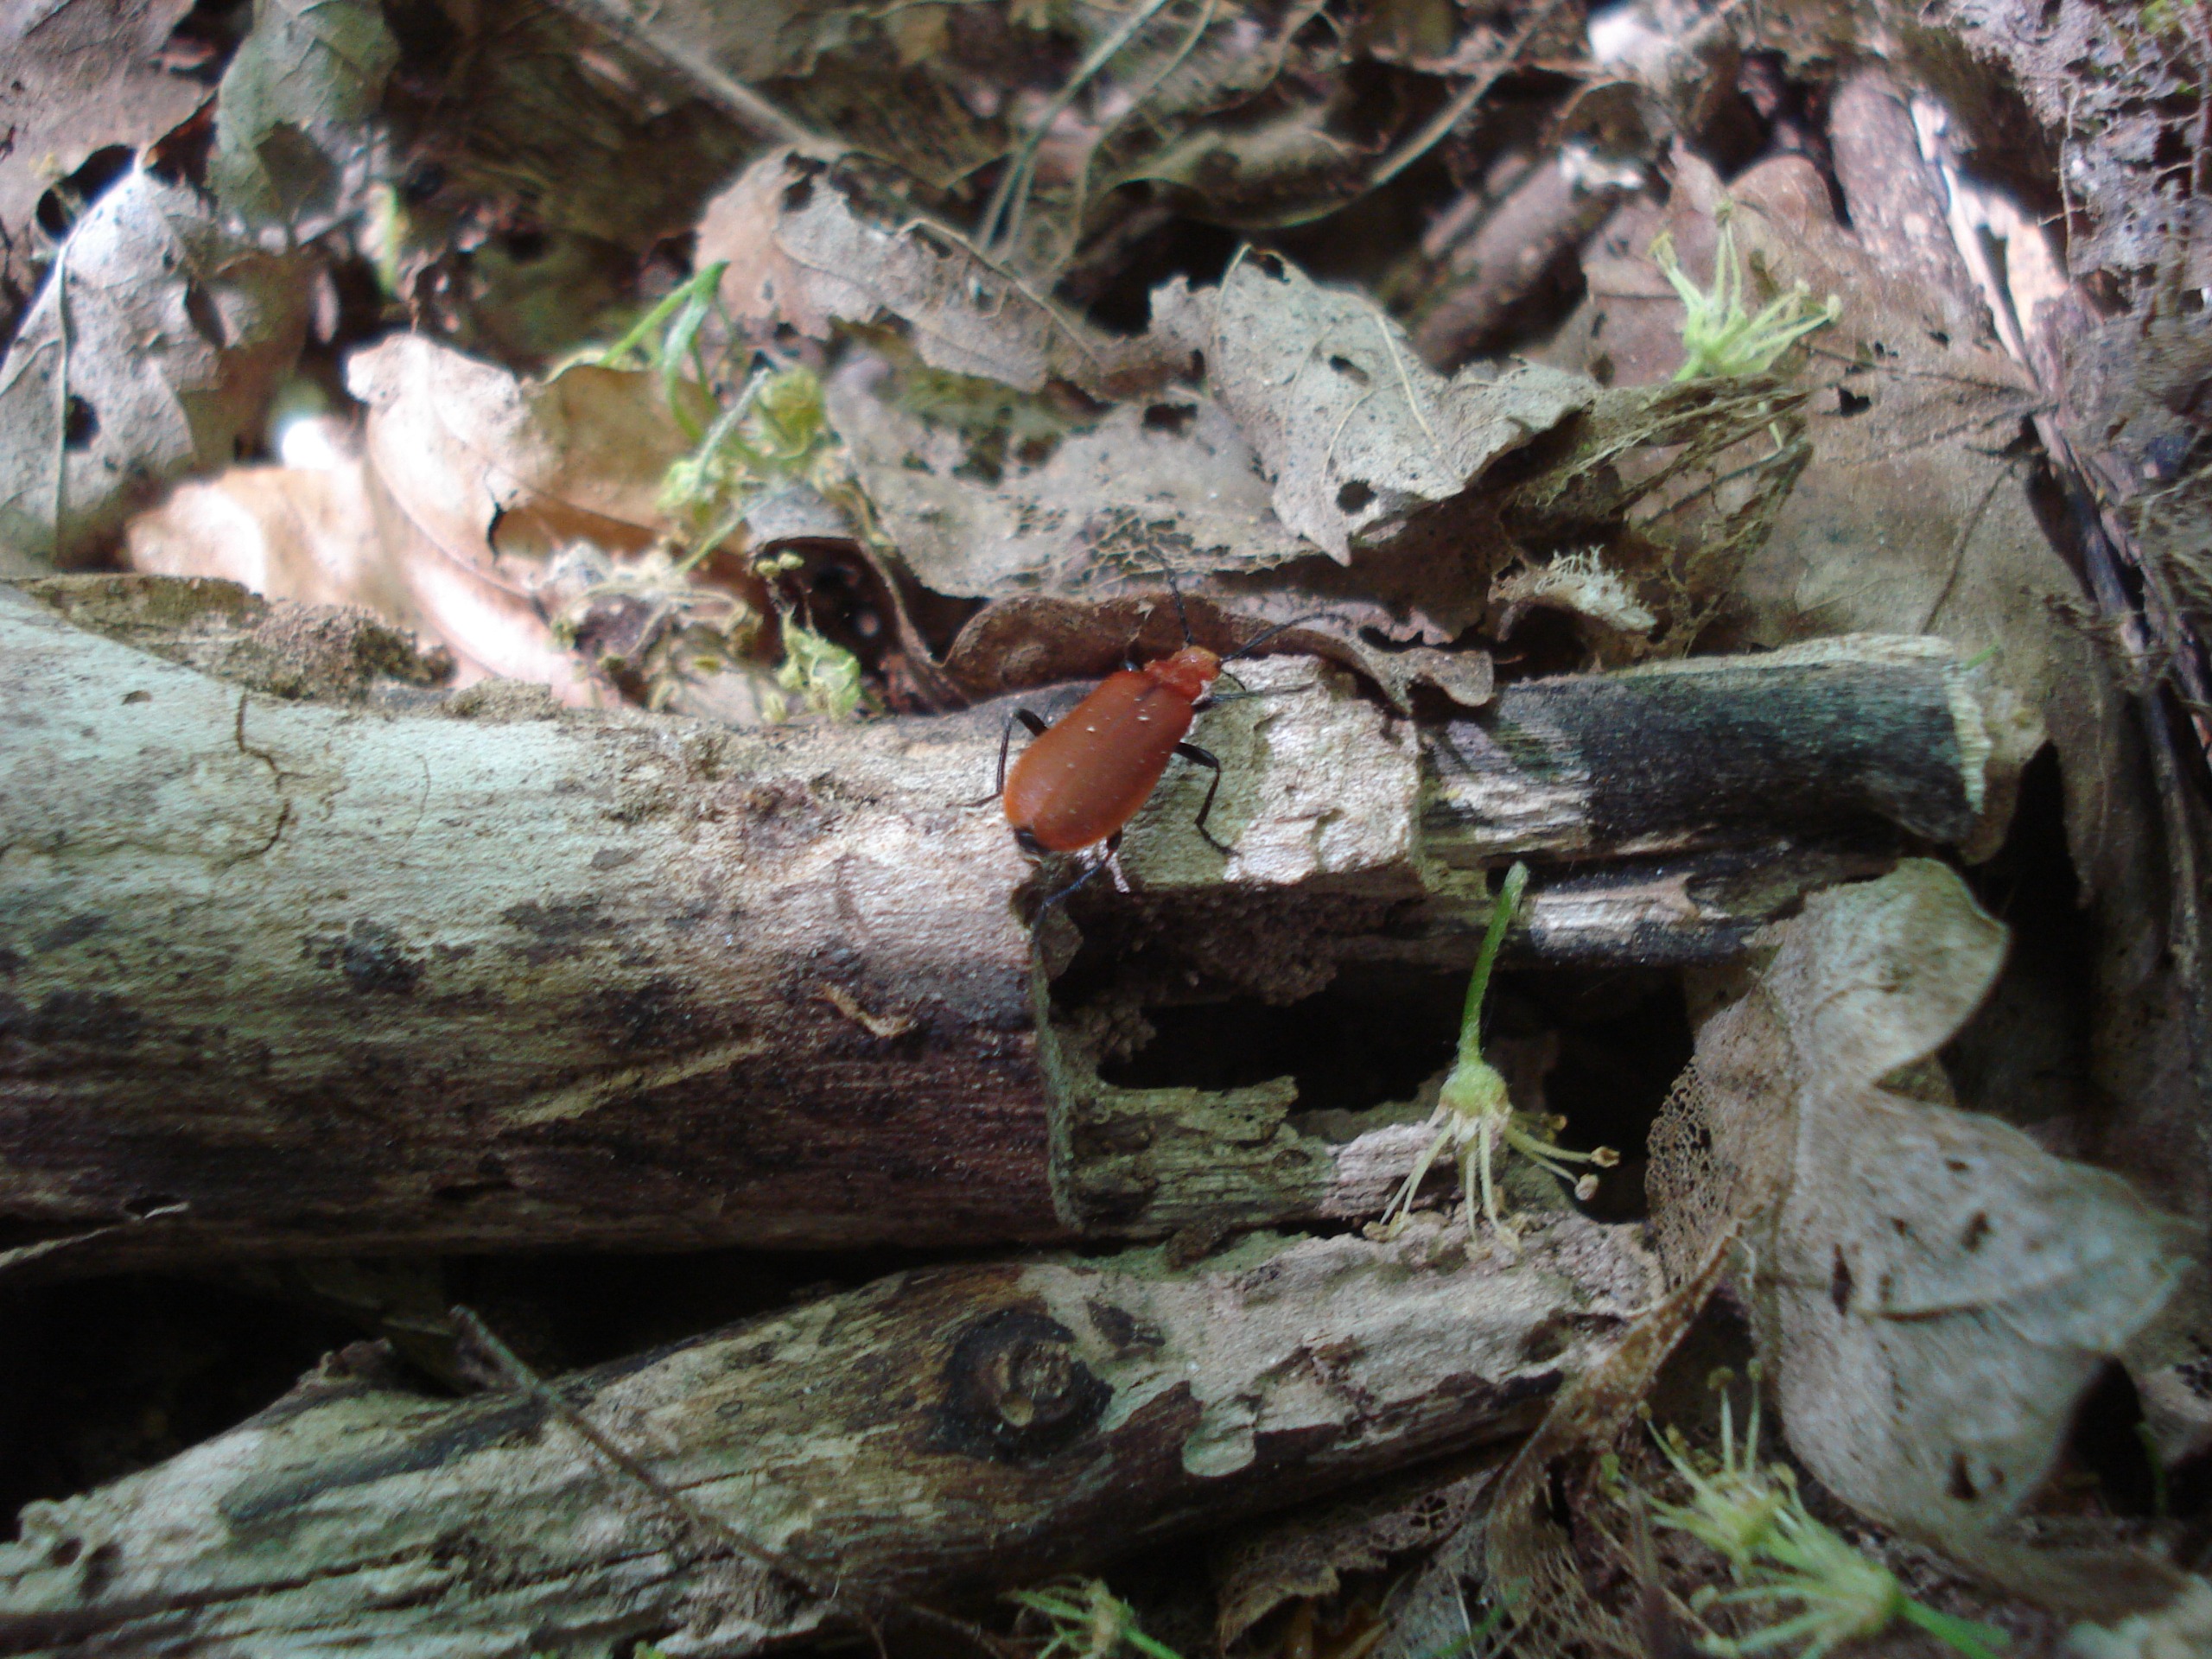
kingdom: Animalia
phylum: Arthropoda
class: Insecta
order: Coleoptera
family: Pyrochroidae
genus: Pyrochroa
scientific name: Pyrochroa serraticornis
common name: Rødhovedet kardinalbille
